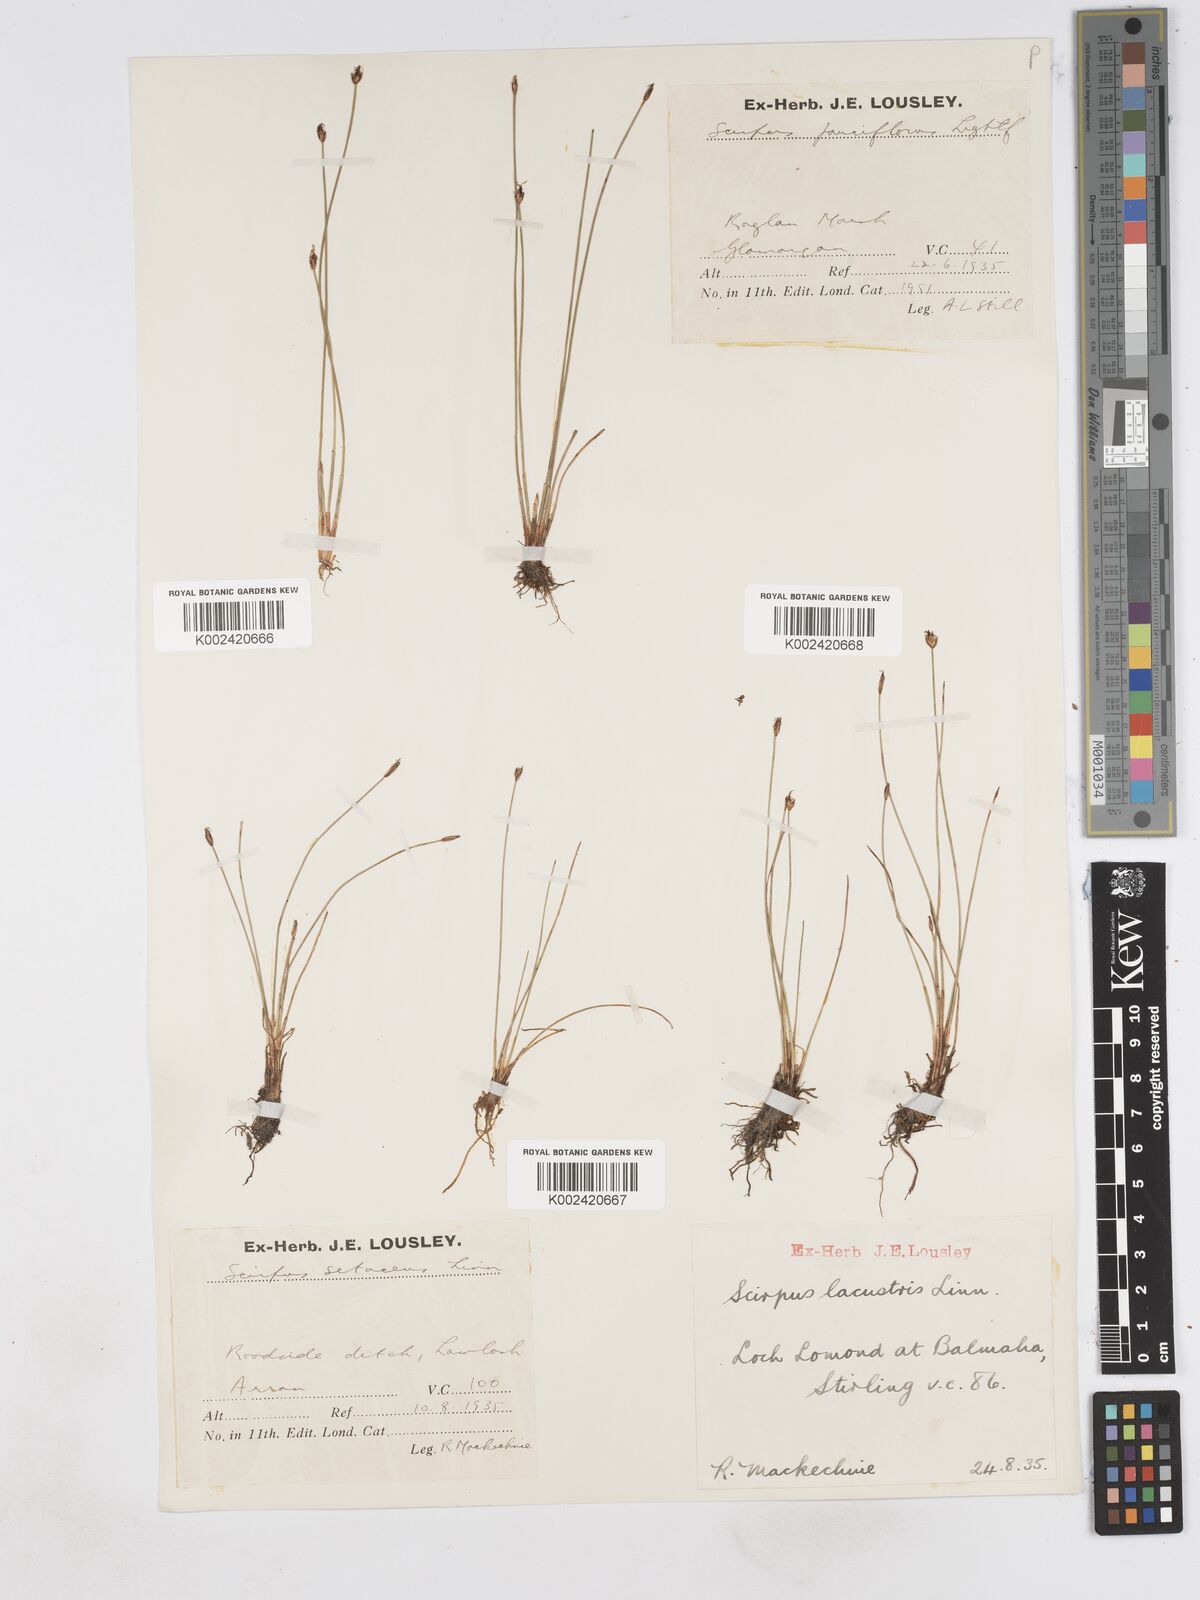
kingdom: Plantae
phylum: Tracheophyta
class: Liliopsida
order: Poales
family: Cyperaceae
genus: Eleocharis
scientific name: Eleocharis quinqueflora
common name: Few-flowered spike-rush
